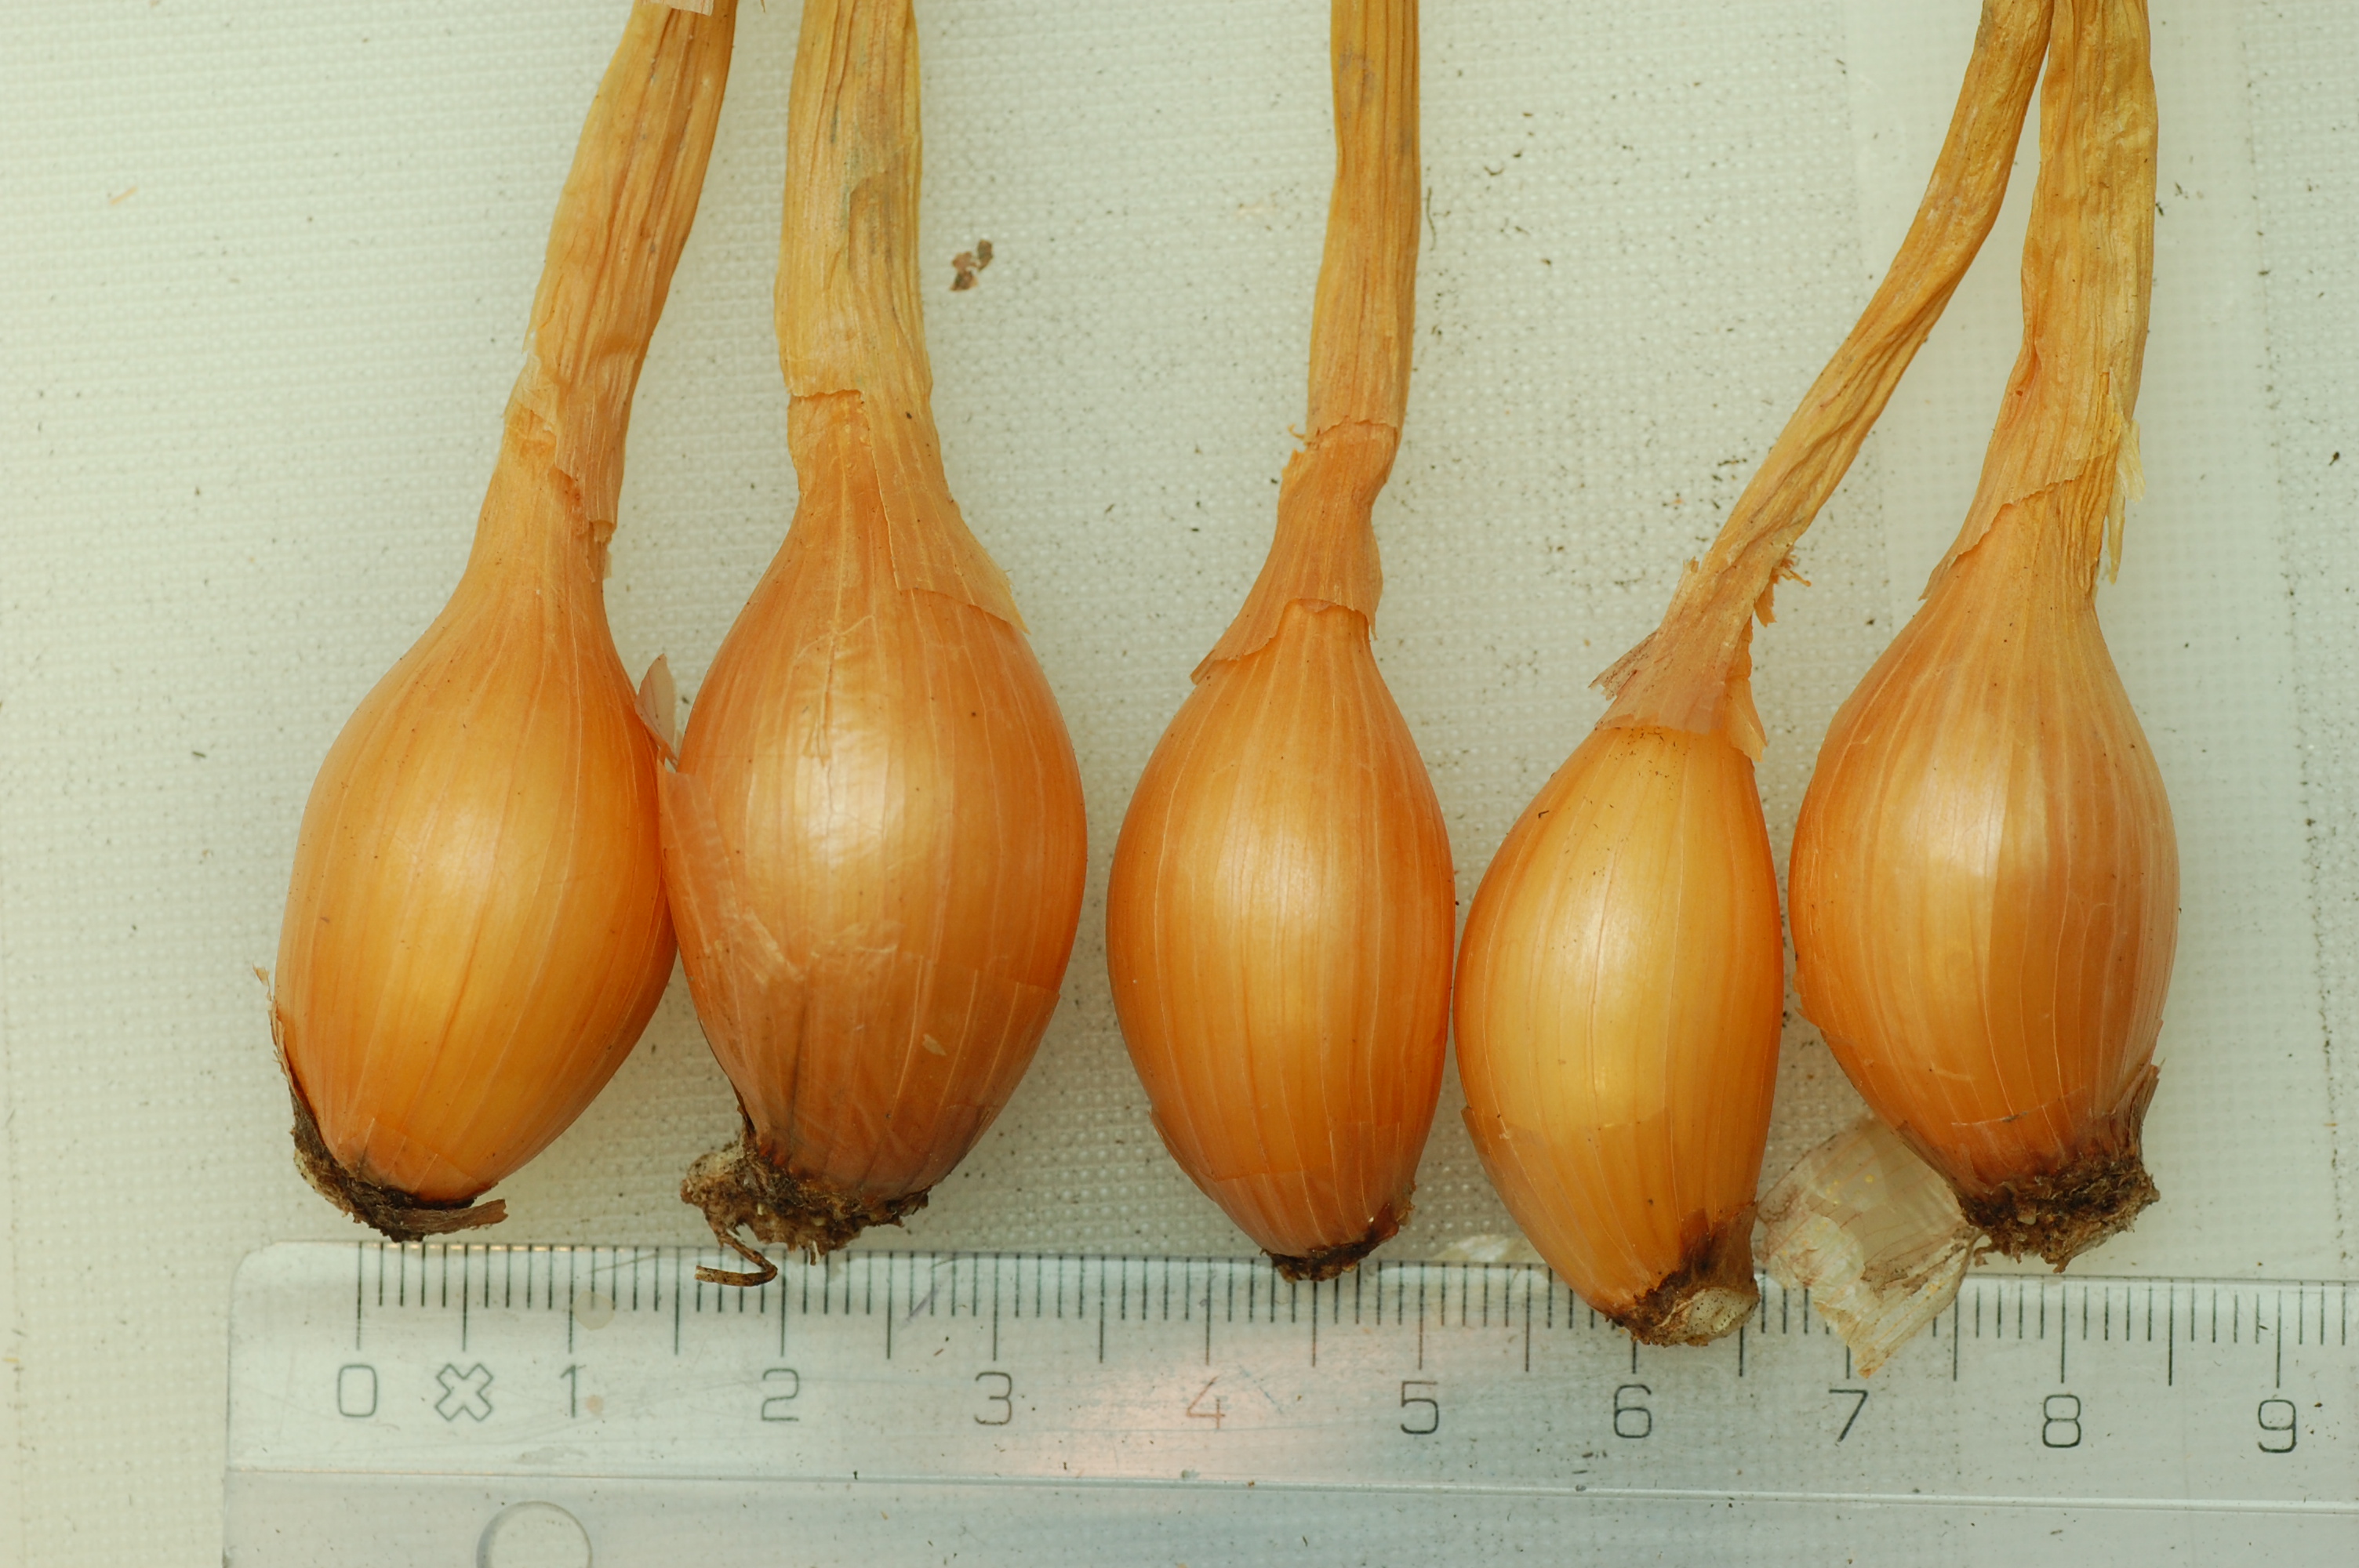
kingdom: Plantae
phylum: Tracheophyta
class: Liliopsida
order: Asparagales
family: Amaryllidaceae
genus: Allium
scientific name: Allium cepa
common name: Onion
